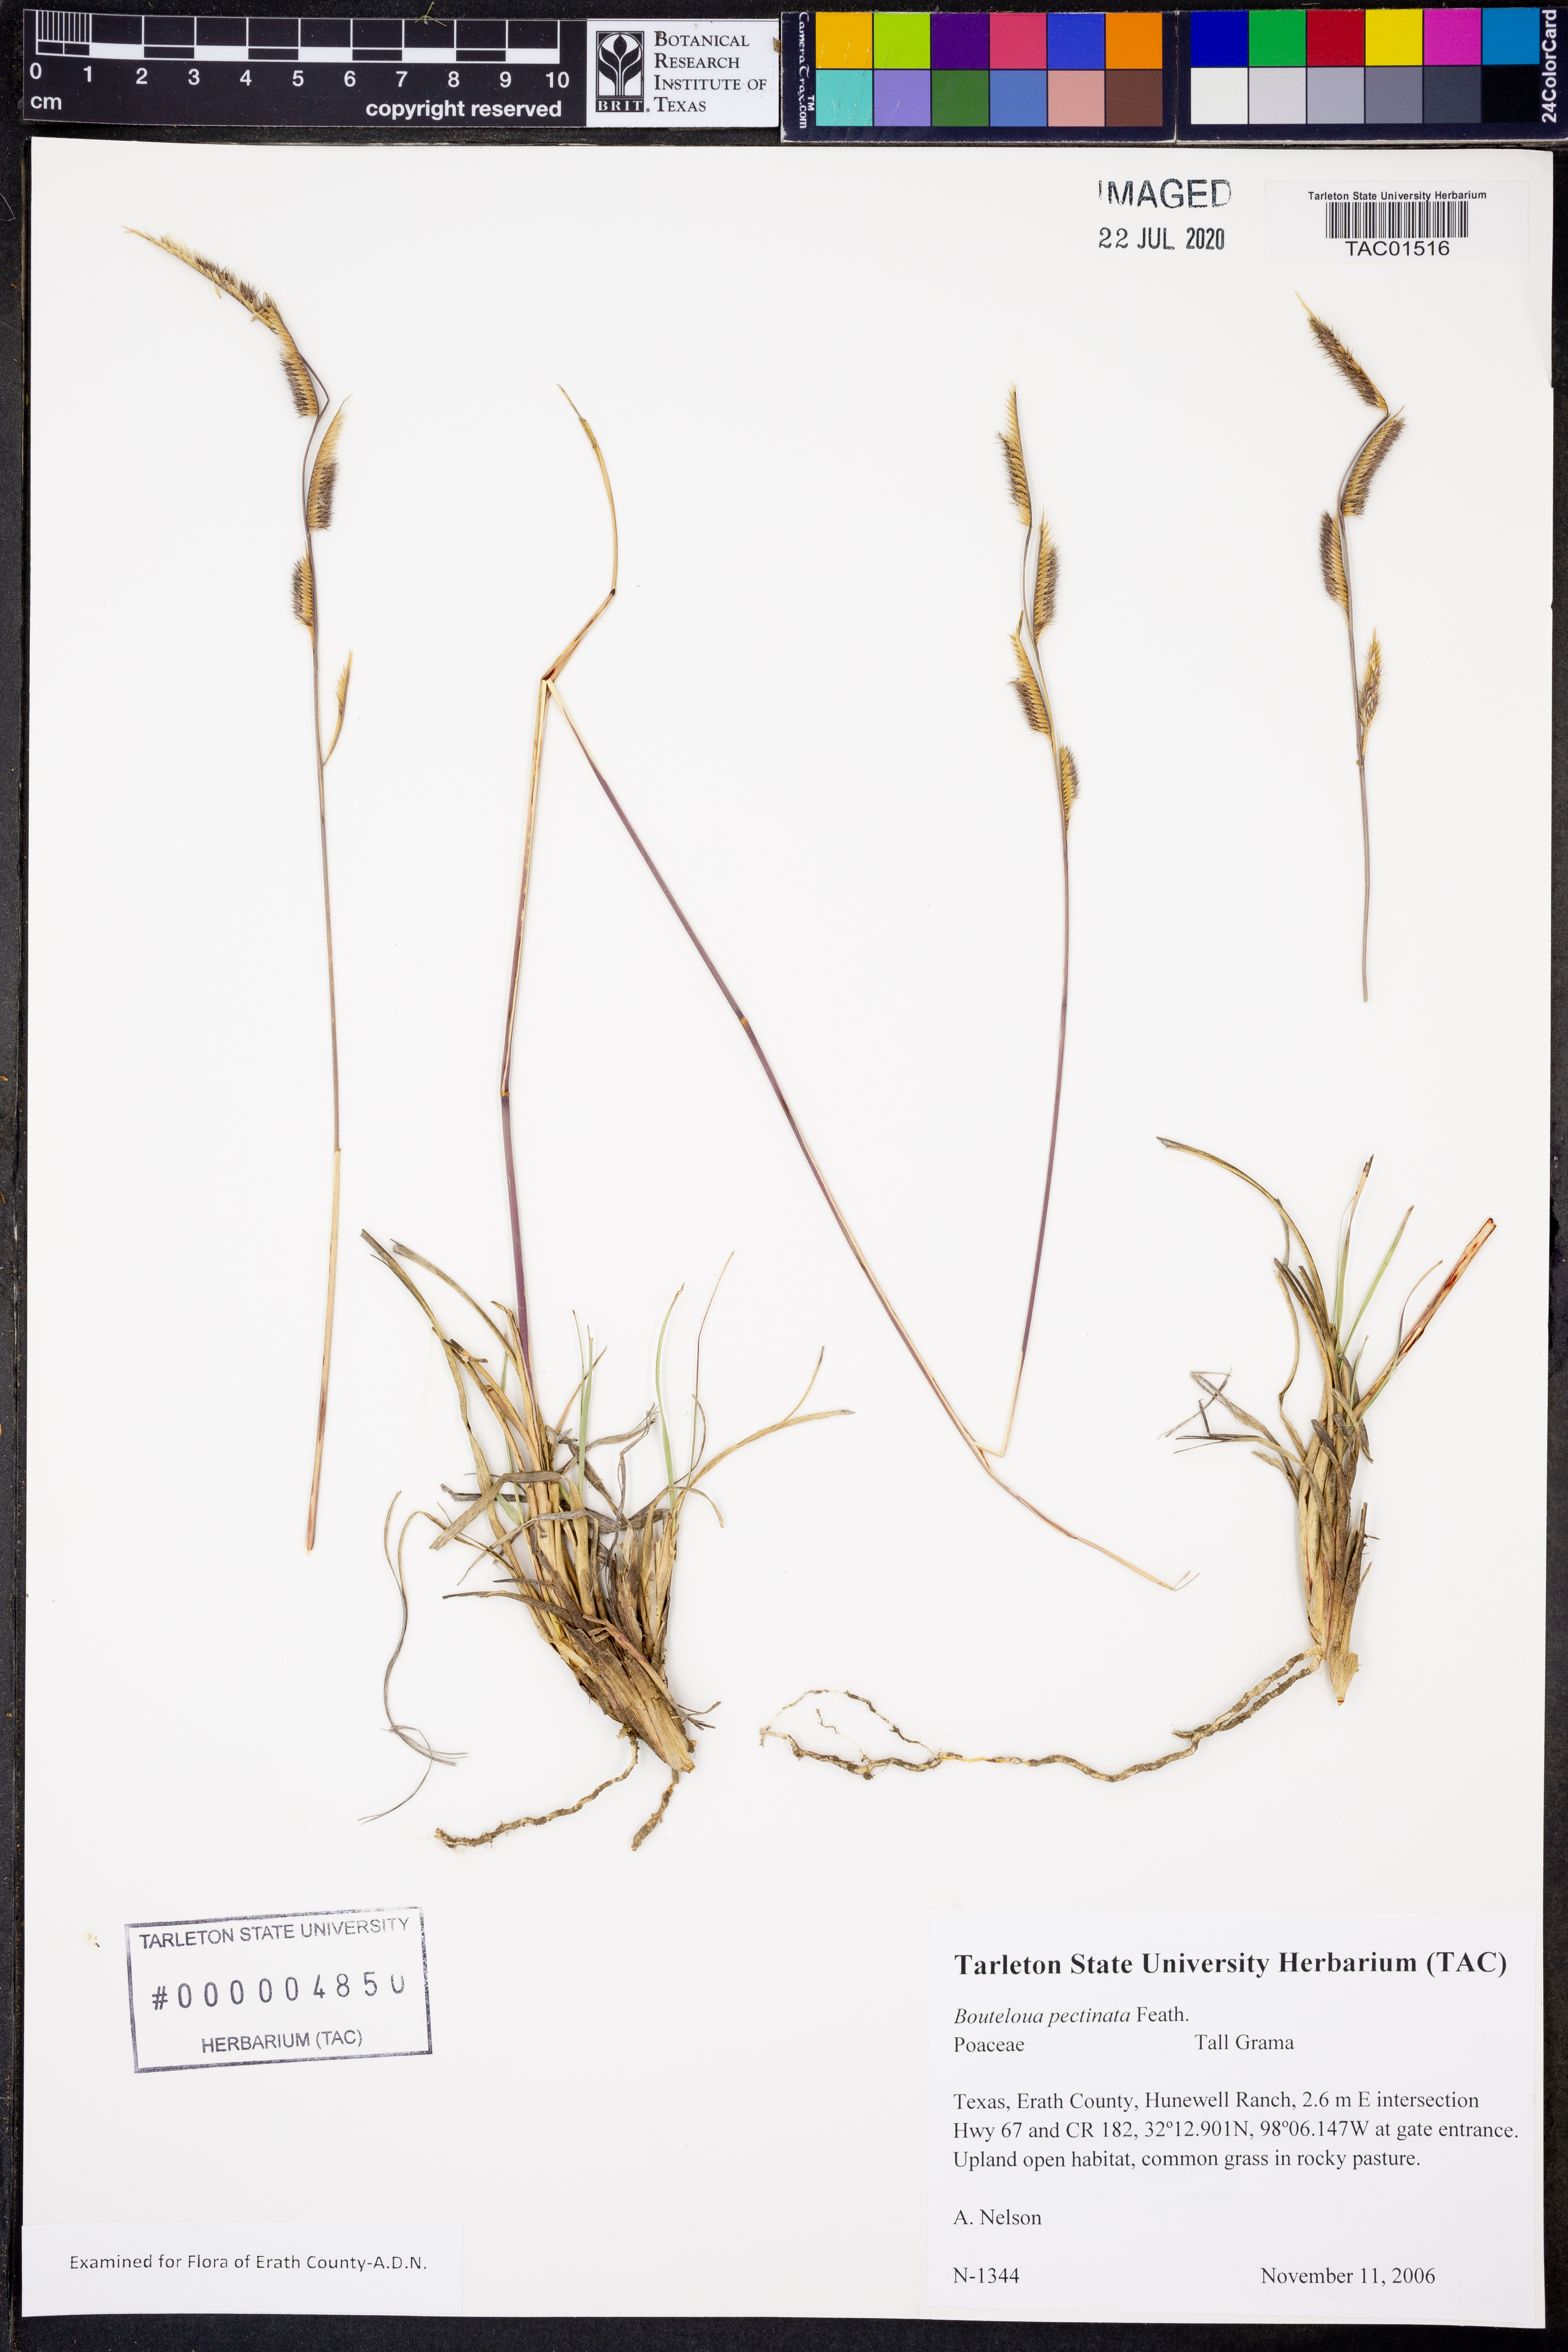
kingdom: Plantae
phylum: Tracheophyta
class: Liliopsida
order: Poales
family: Poaceae
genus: Bouteloua
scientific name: Bouteloua pectinata
